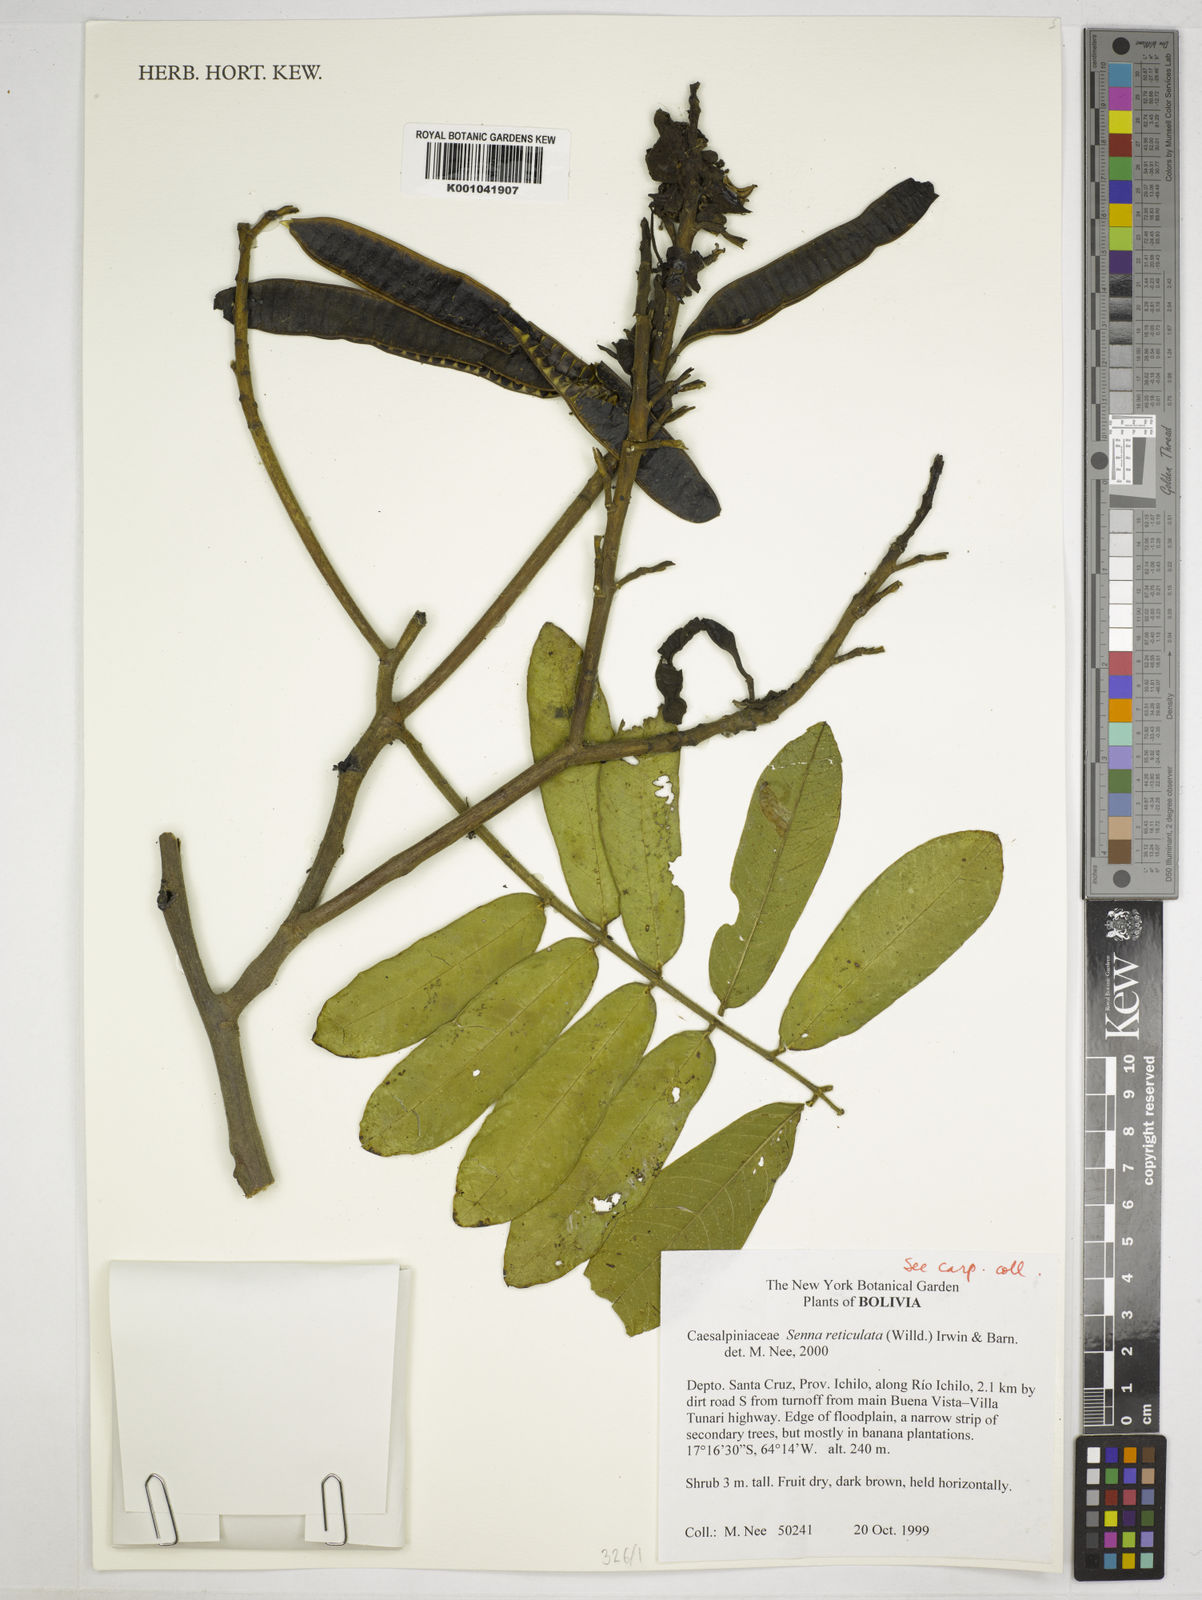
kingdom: Plantae
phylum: Tracheophyta
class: Magnoliopsida
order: Fabales
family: Fabaceae
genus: Senna
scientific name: Senna reticulata
